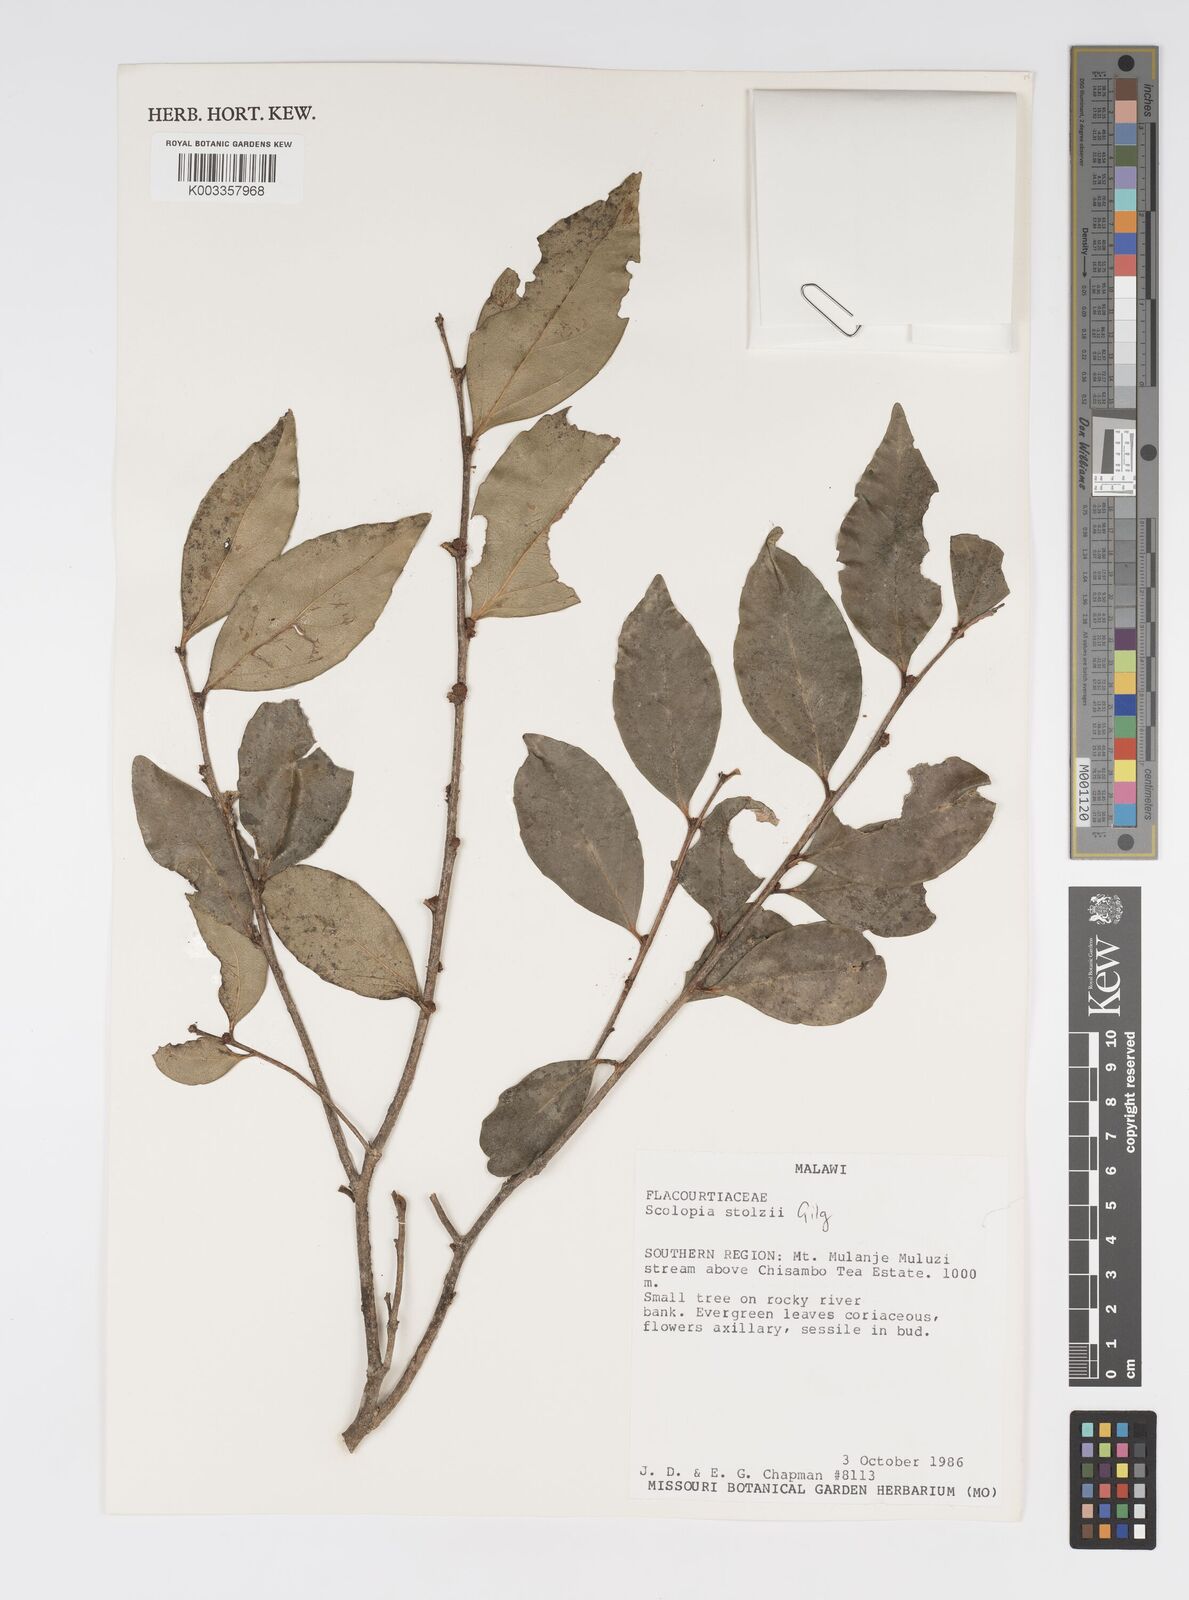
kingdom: Plantae
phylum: Tracheophyta
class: Magnoliopsida
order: Malpighiales
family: Salicaceae
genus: Scolopia
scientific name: Scolopia stolzii
